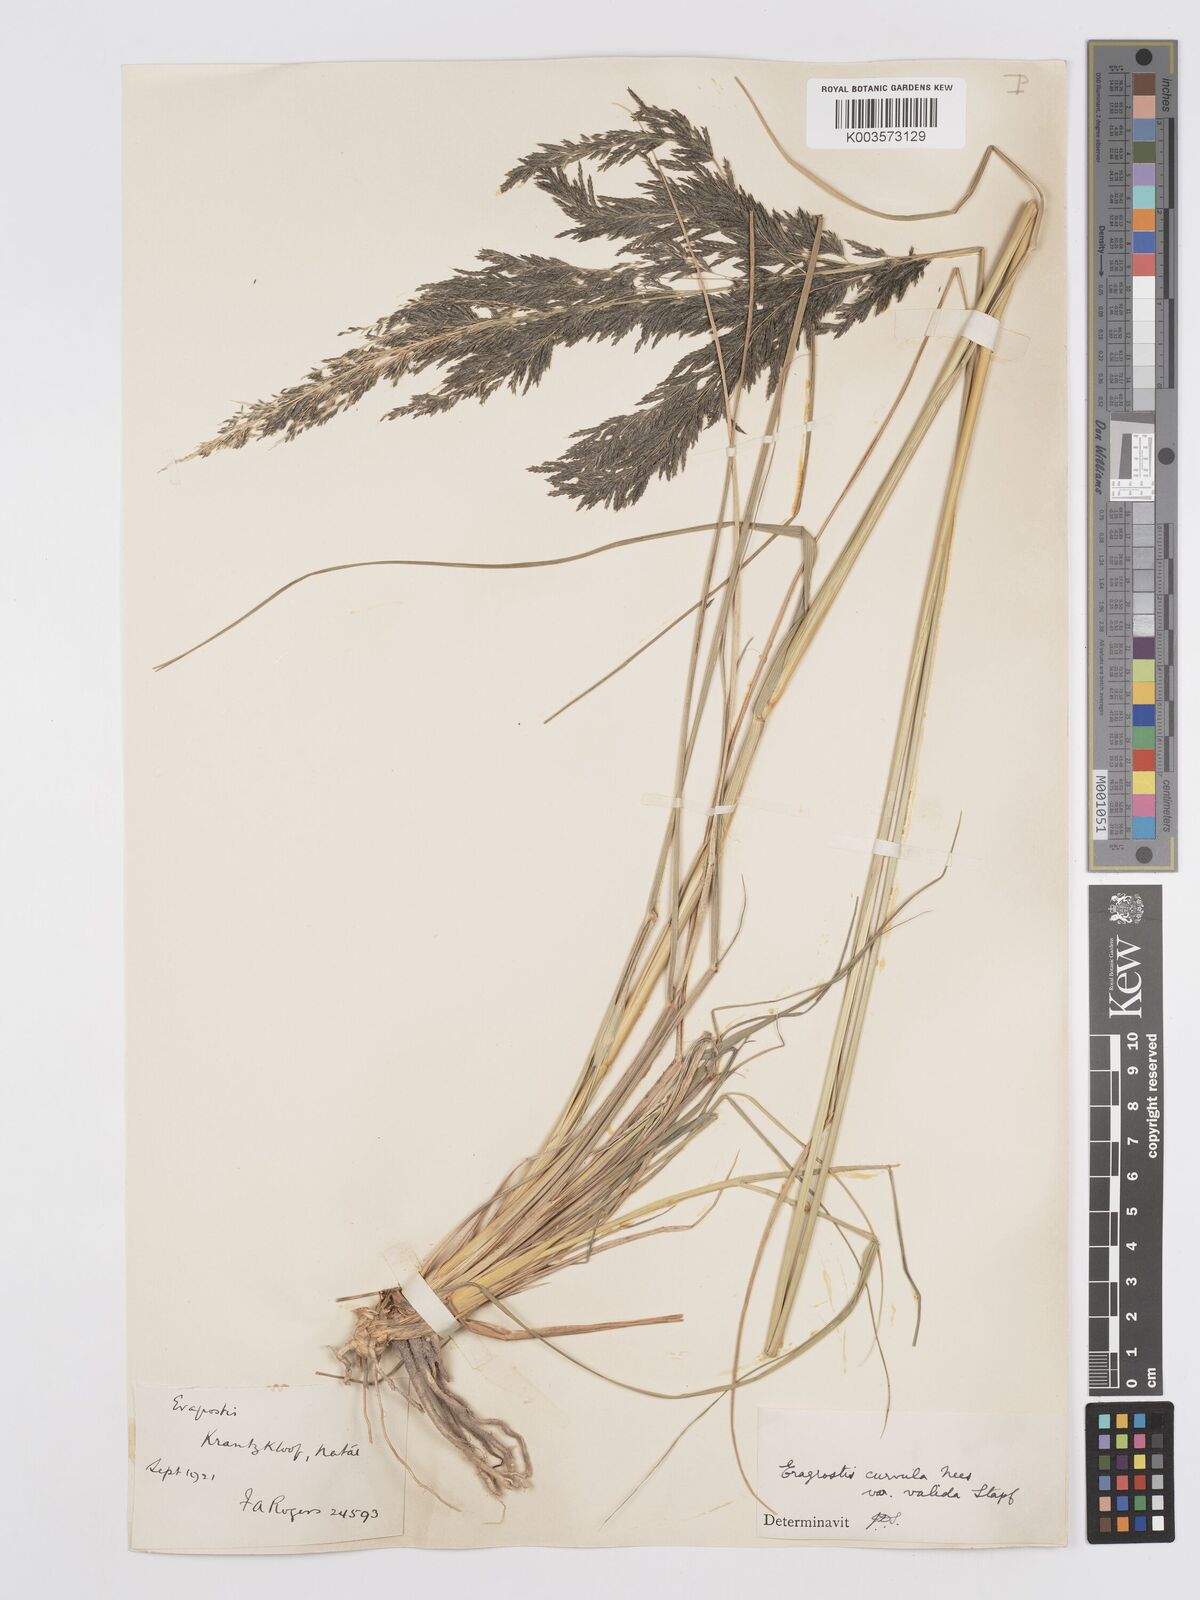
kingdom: Plantae
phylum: Tracheophyta
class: Liliopsida
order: Poales
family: Poaceae
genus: Eragrostis
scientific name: Eragrostis curvula
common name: African love-grass
